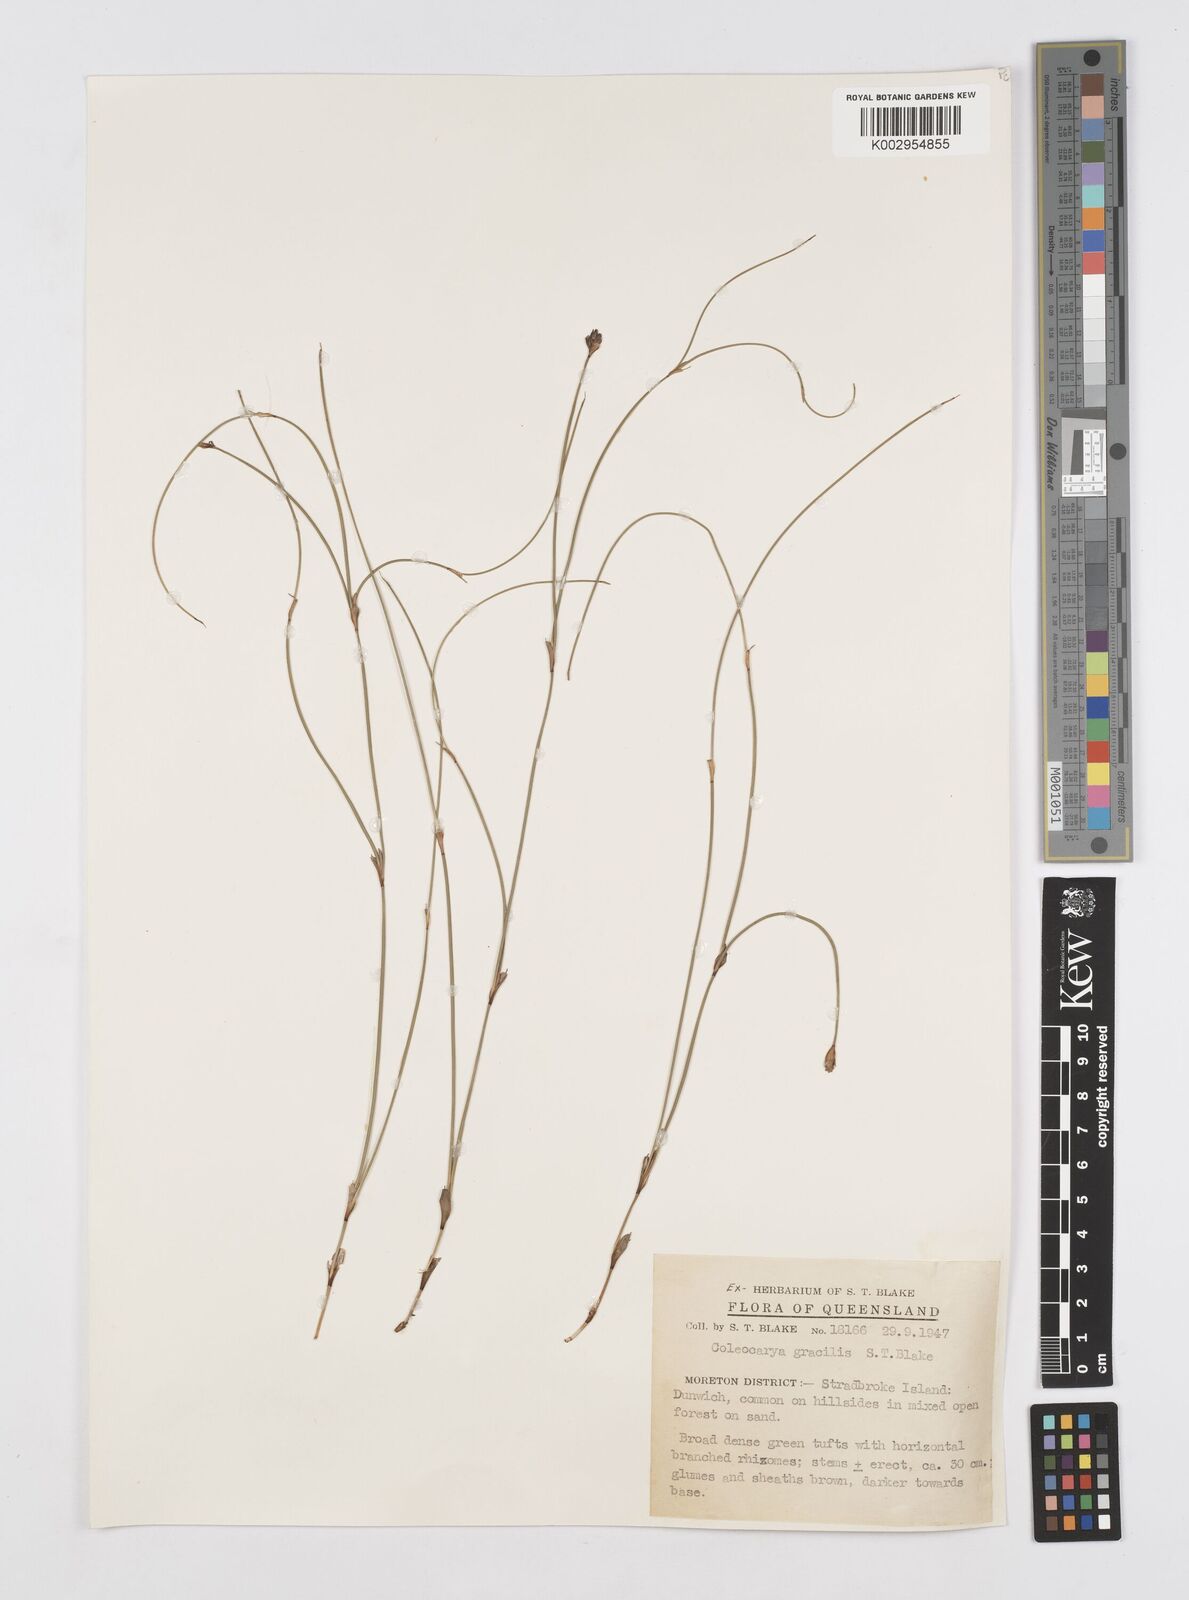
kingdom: Plantae
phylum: Tracheophyta
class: Liliopsida
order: Poales
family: Restionaceae
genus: Coleocarya
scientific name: Coleocarya gracilis
